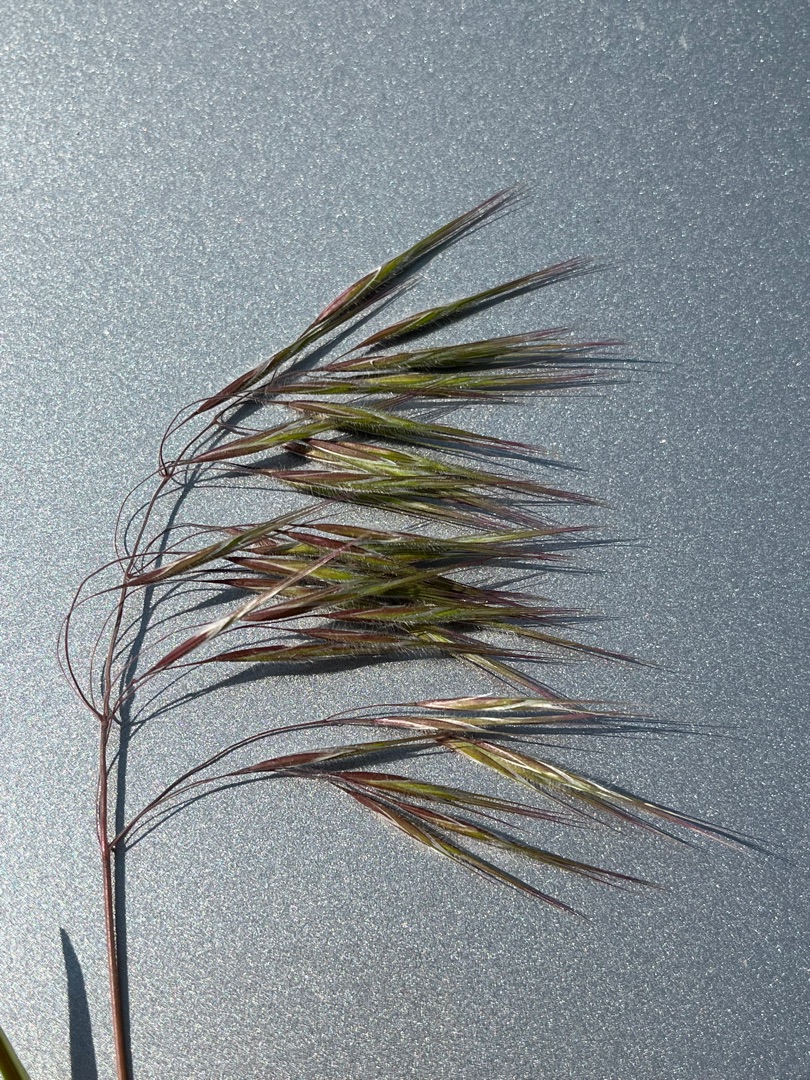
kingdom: Plantae
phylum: Tracheophyta
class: Liliopsida
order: Poales
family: Poaceae
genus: Bromus
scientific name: Bromus tectorum
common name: Tag-hejre
